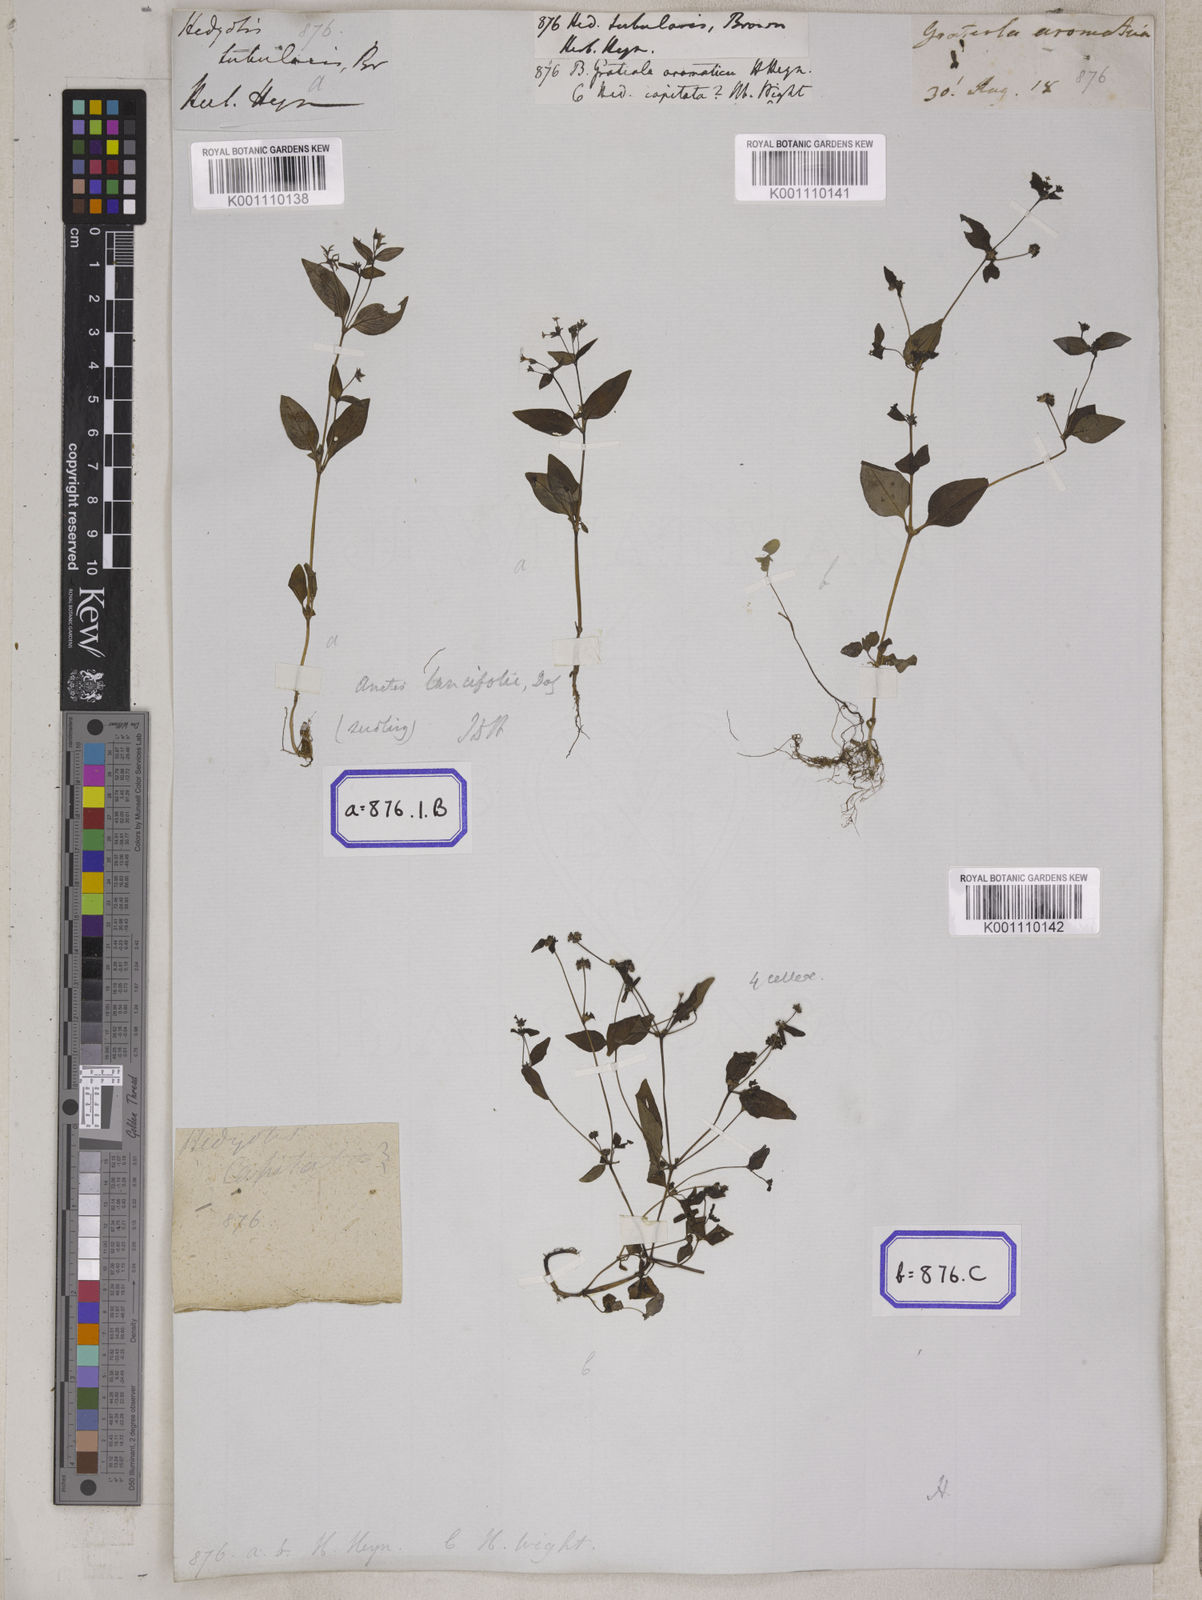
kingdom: Plantae
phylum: Tracheophyta
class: Magnoliopsida
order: Gentianales
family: Rubiaceae
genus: Hedyotis
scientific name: Hedyotis
